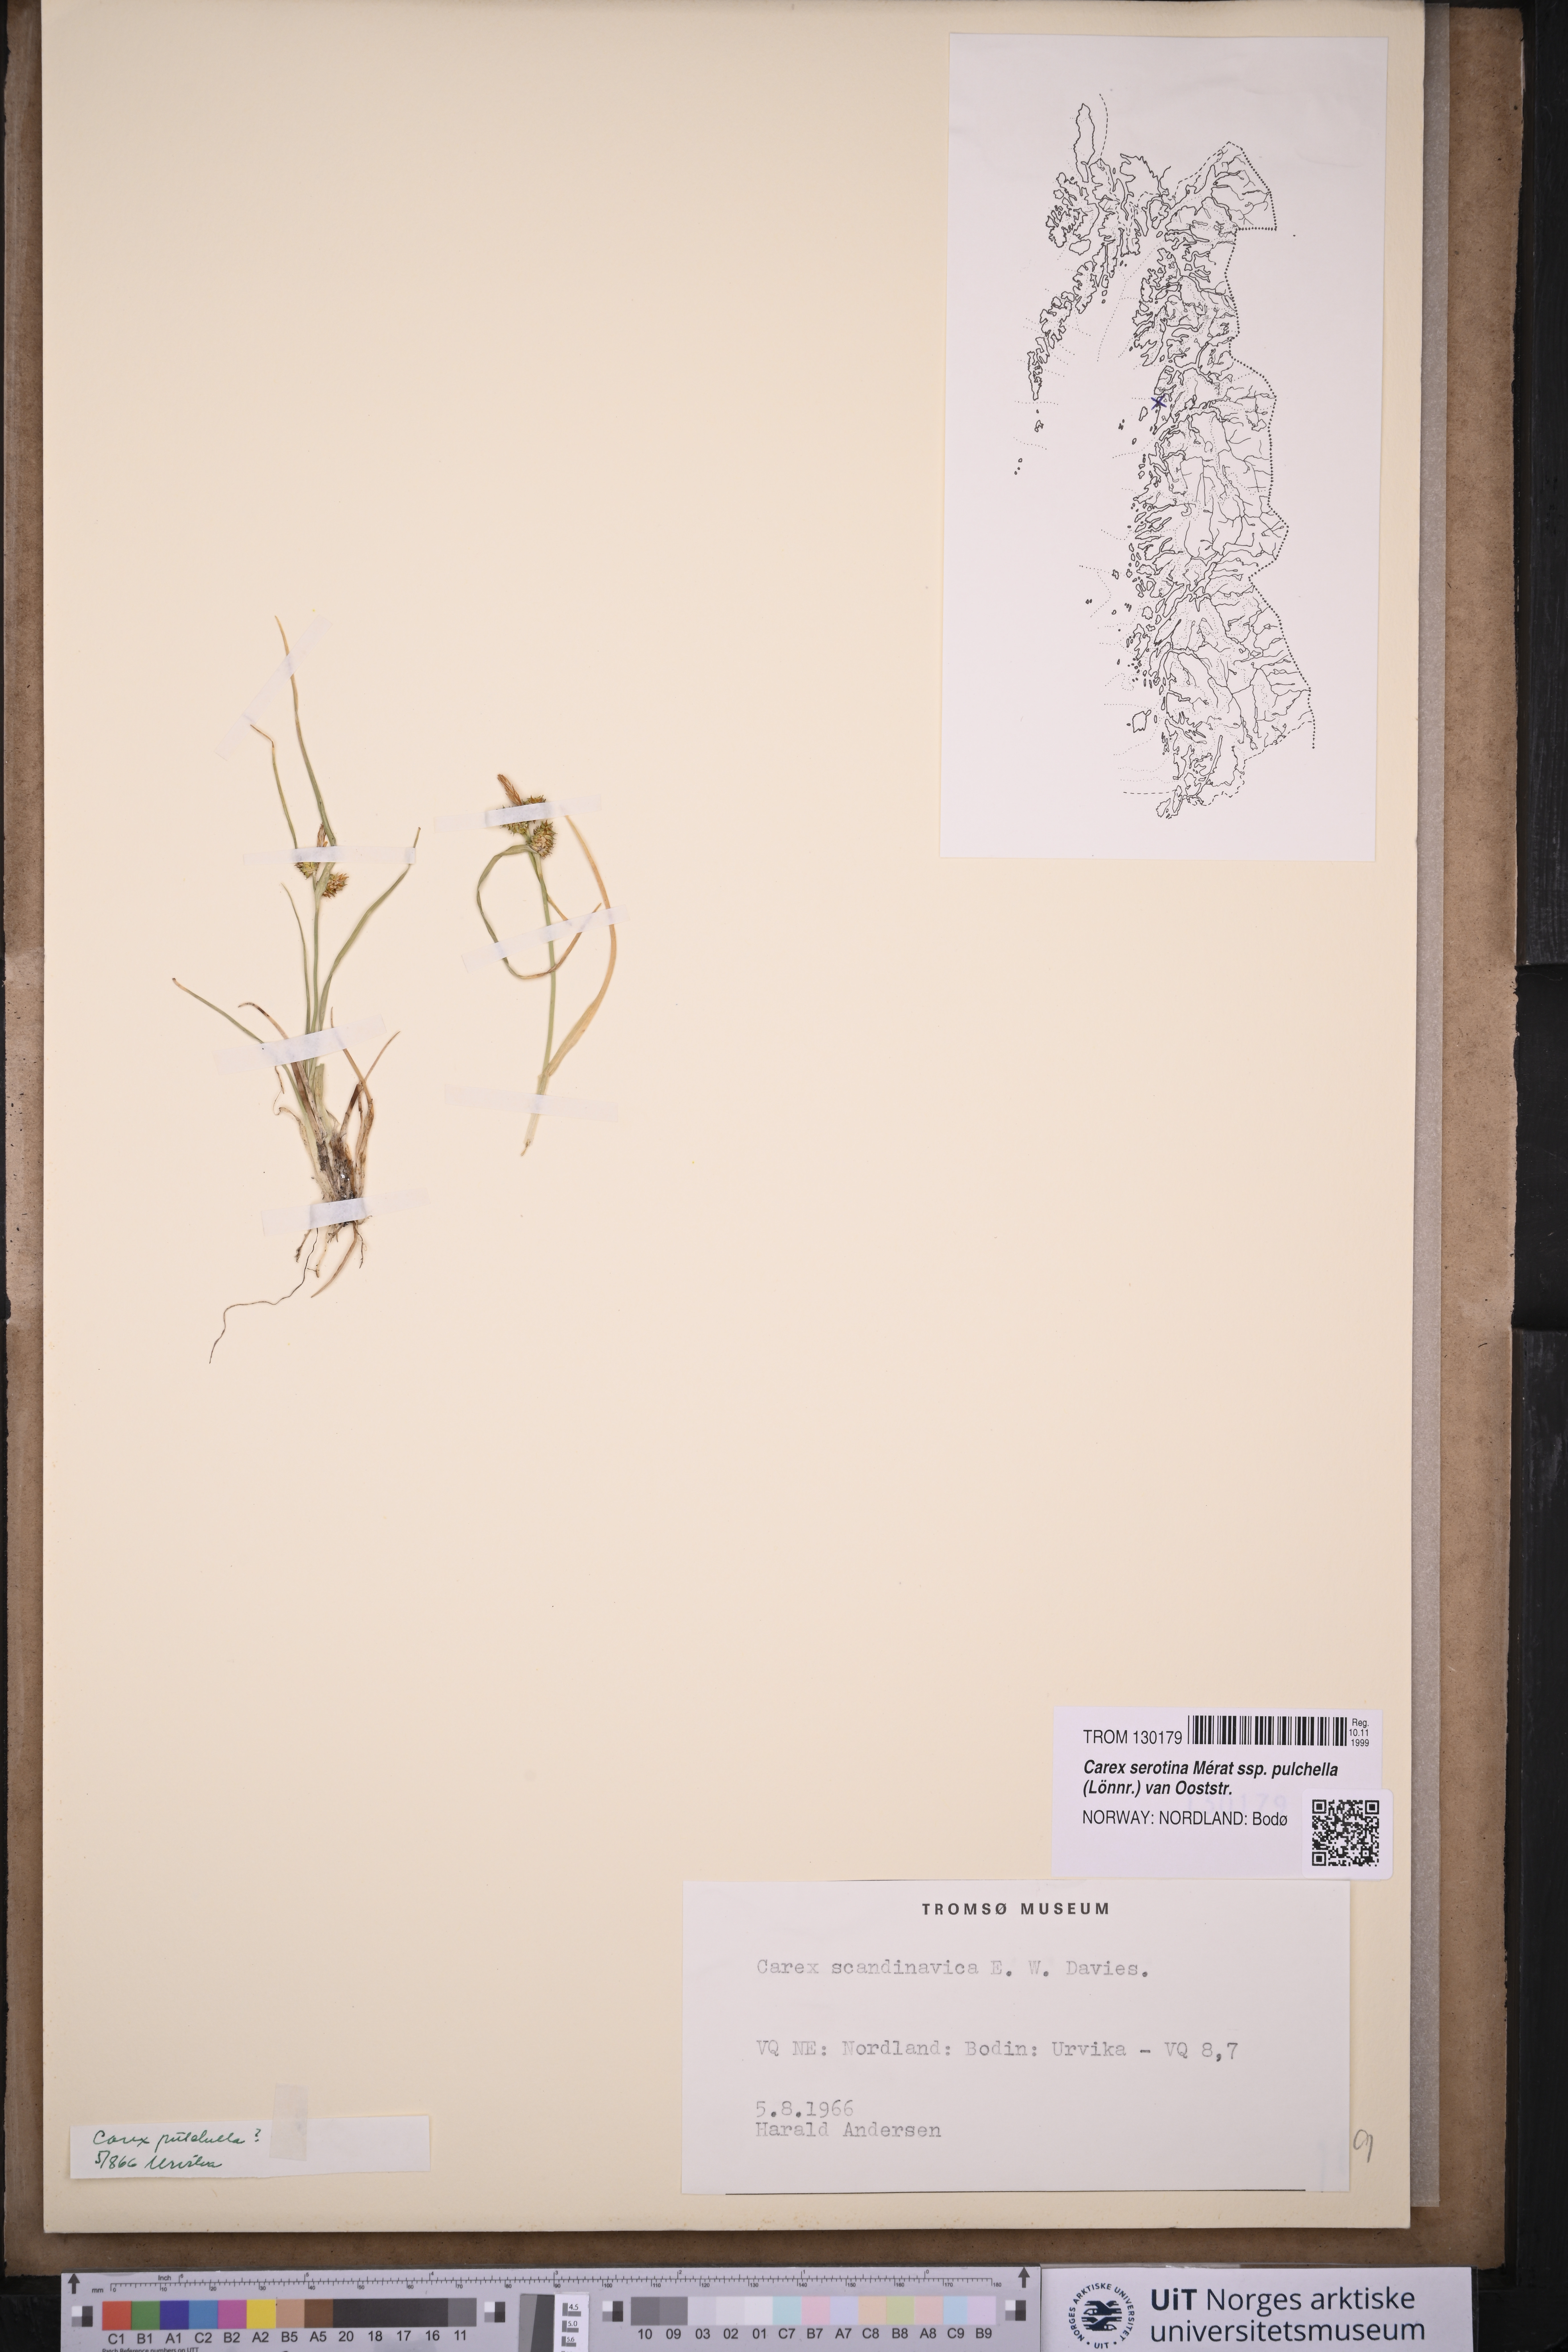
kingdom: Plantae
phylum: Tracheophyta
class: Liliopsida
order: Poales
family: Cyperaceae
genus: Carex
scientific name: Carex oederi
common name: Common & small-fruited yellow-sedge
